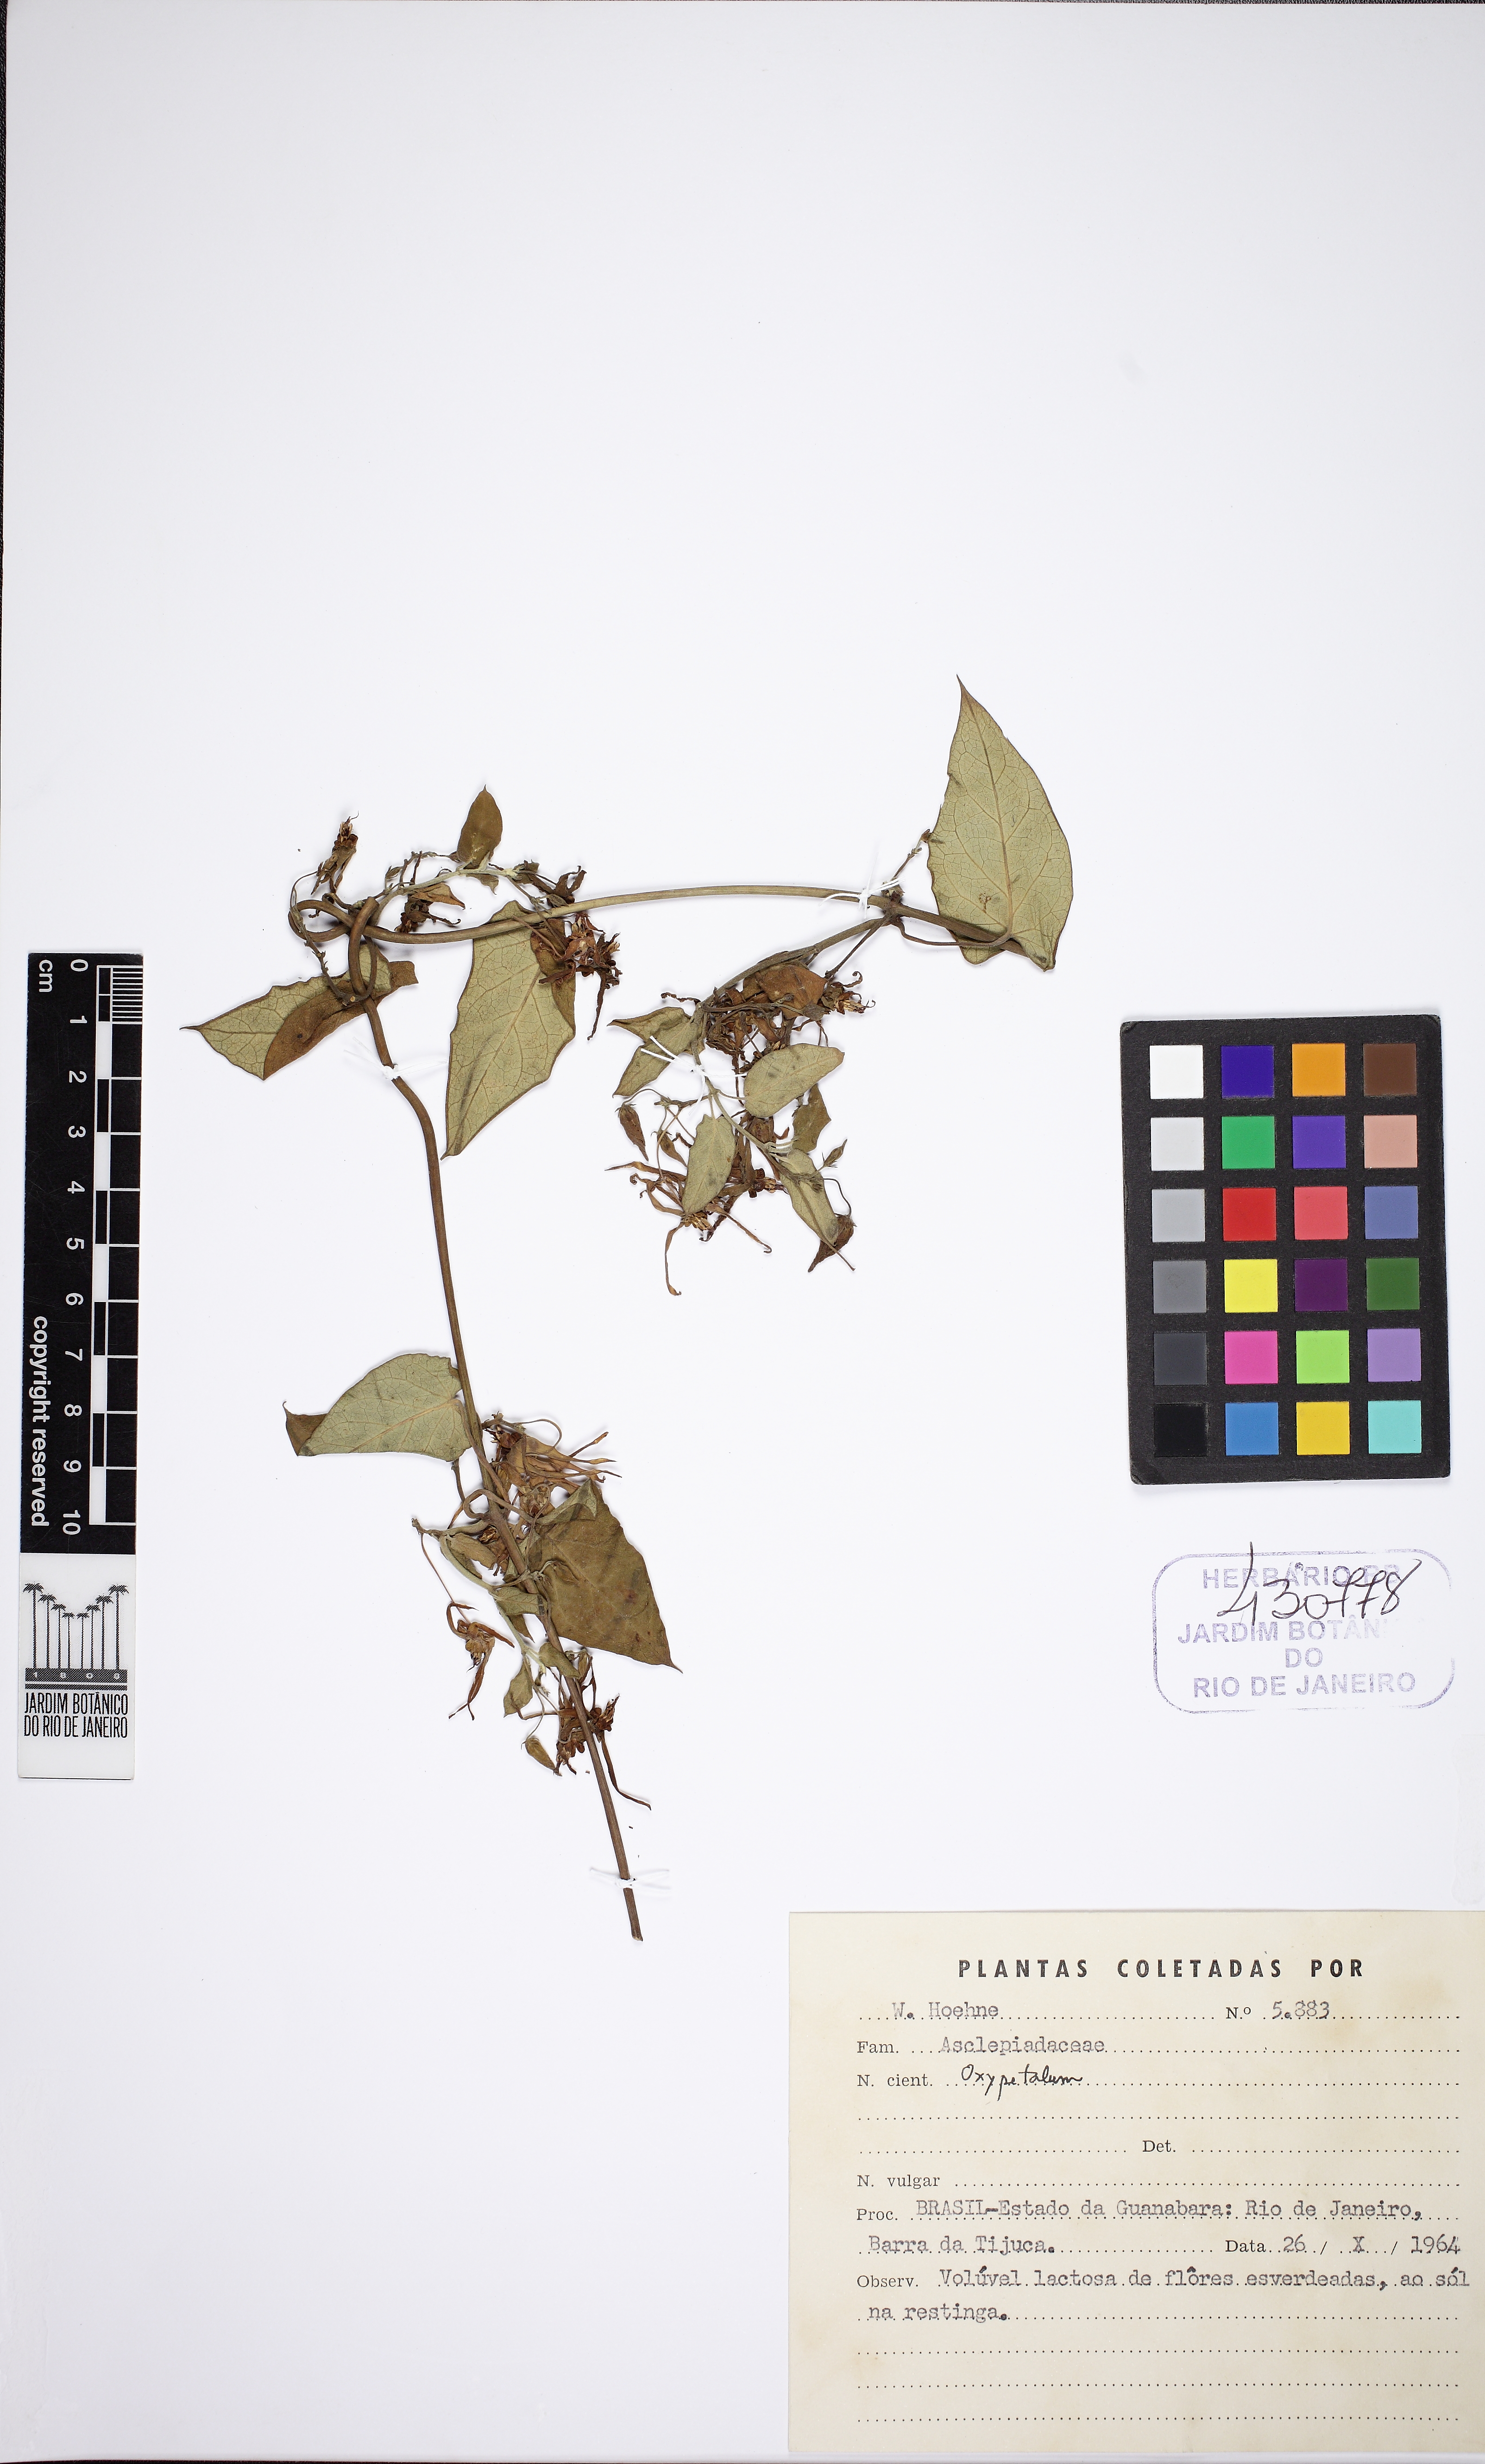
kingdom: Plantae
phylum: Tracheophyta
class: Magnoliopsida
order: Gentianales
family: Apocynaceae
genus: Oxypetalum
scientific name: Oxypetalum banksii
